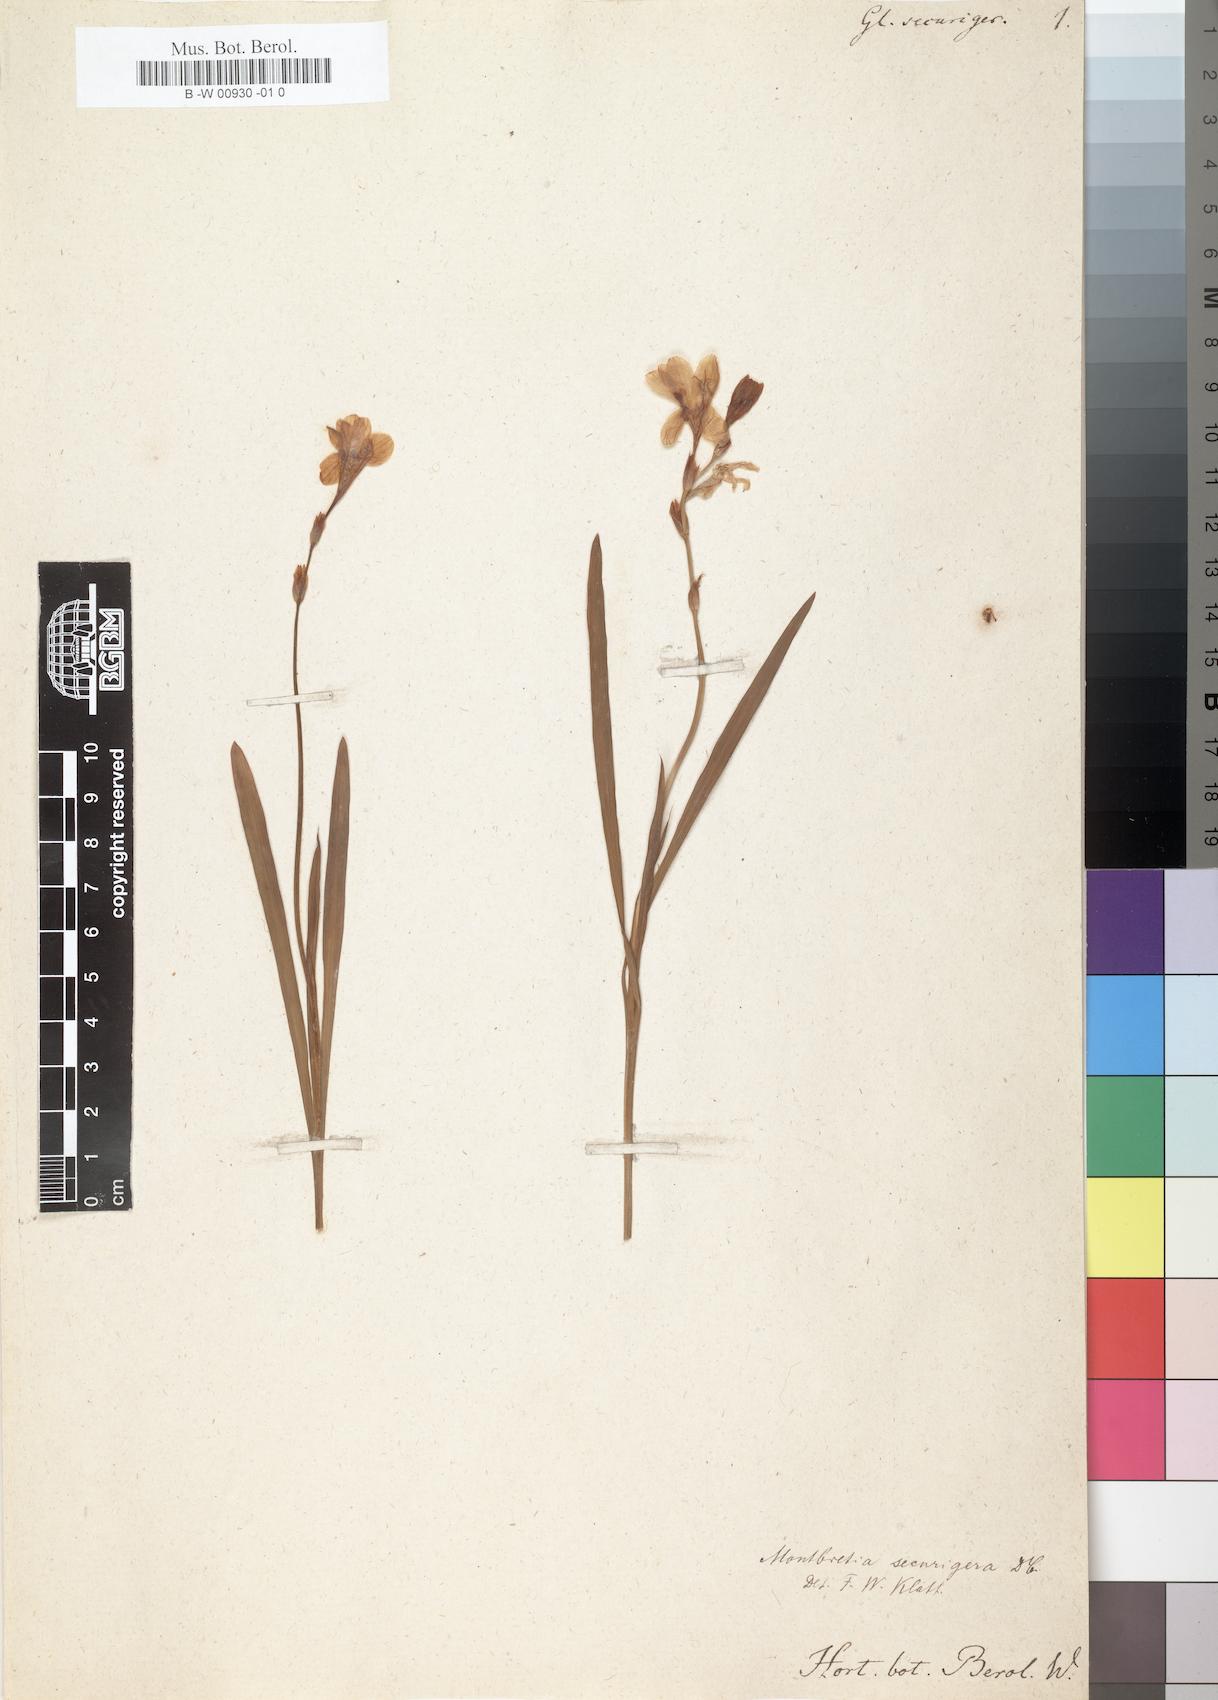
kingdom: Plantae
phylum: Tracheophyta
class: Liliopsida
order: Asparagales
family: Iridaceae
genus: Tritonia
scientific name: Tritonia securigera
